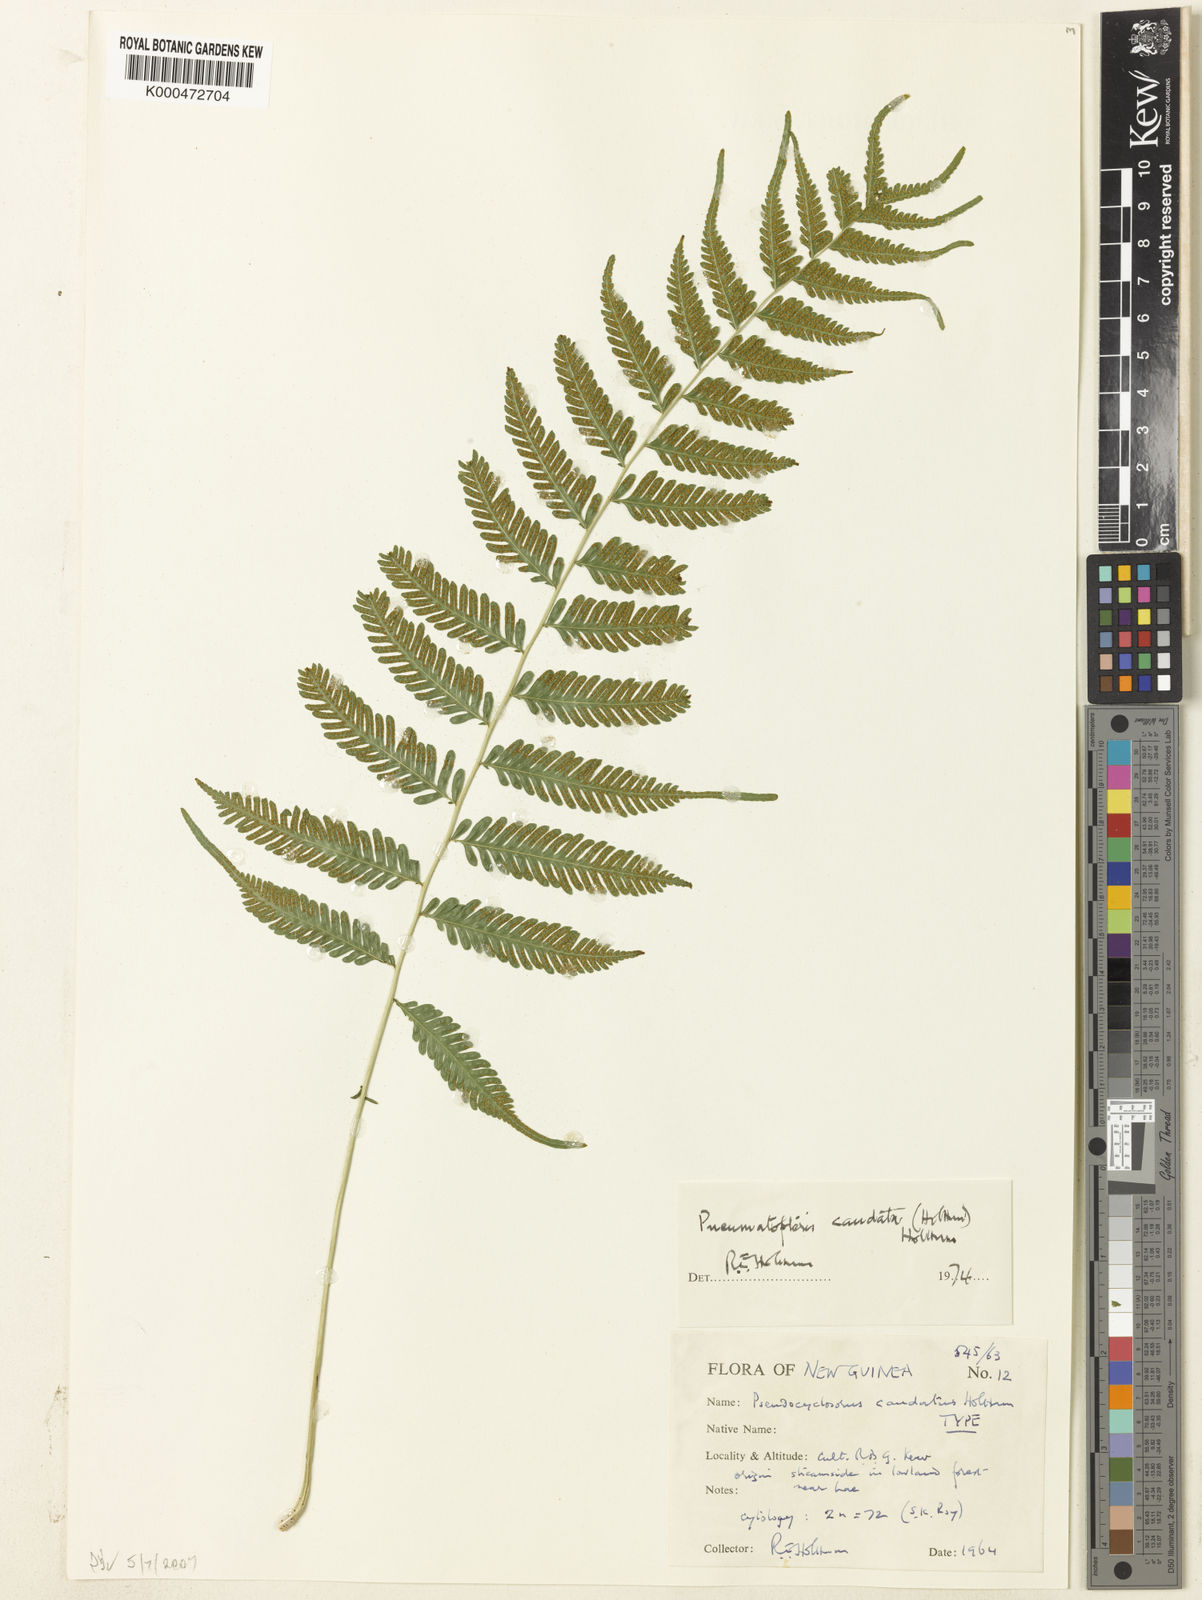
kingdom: Plantae
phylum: Tracheophyta
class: Polypodiopsida
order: Polypodiales
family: Thelypteridaceae
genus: Plesioneuron
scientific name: Plesioneuron caudatum
